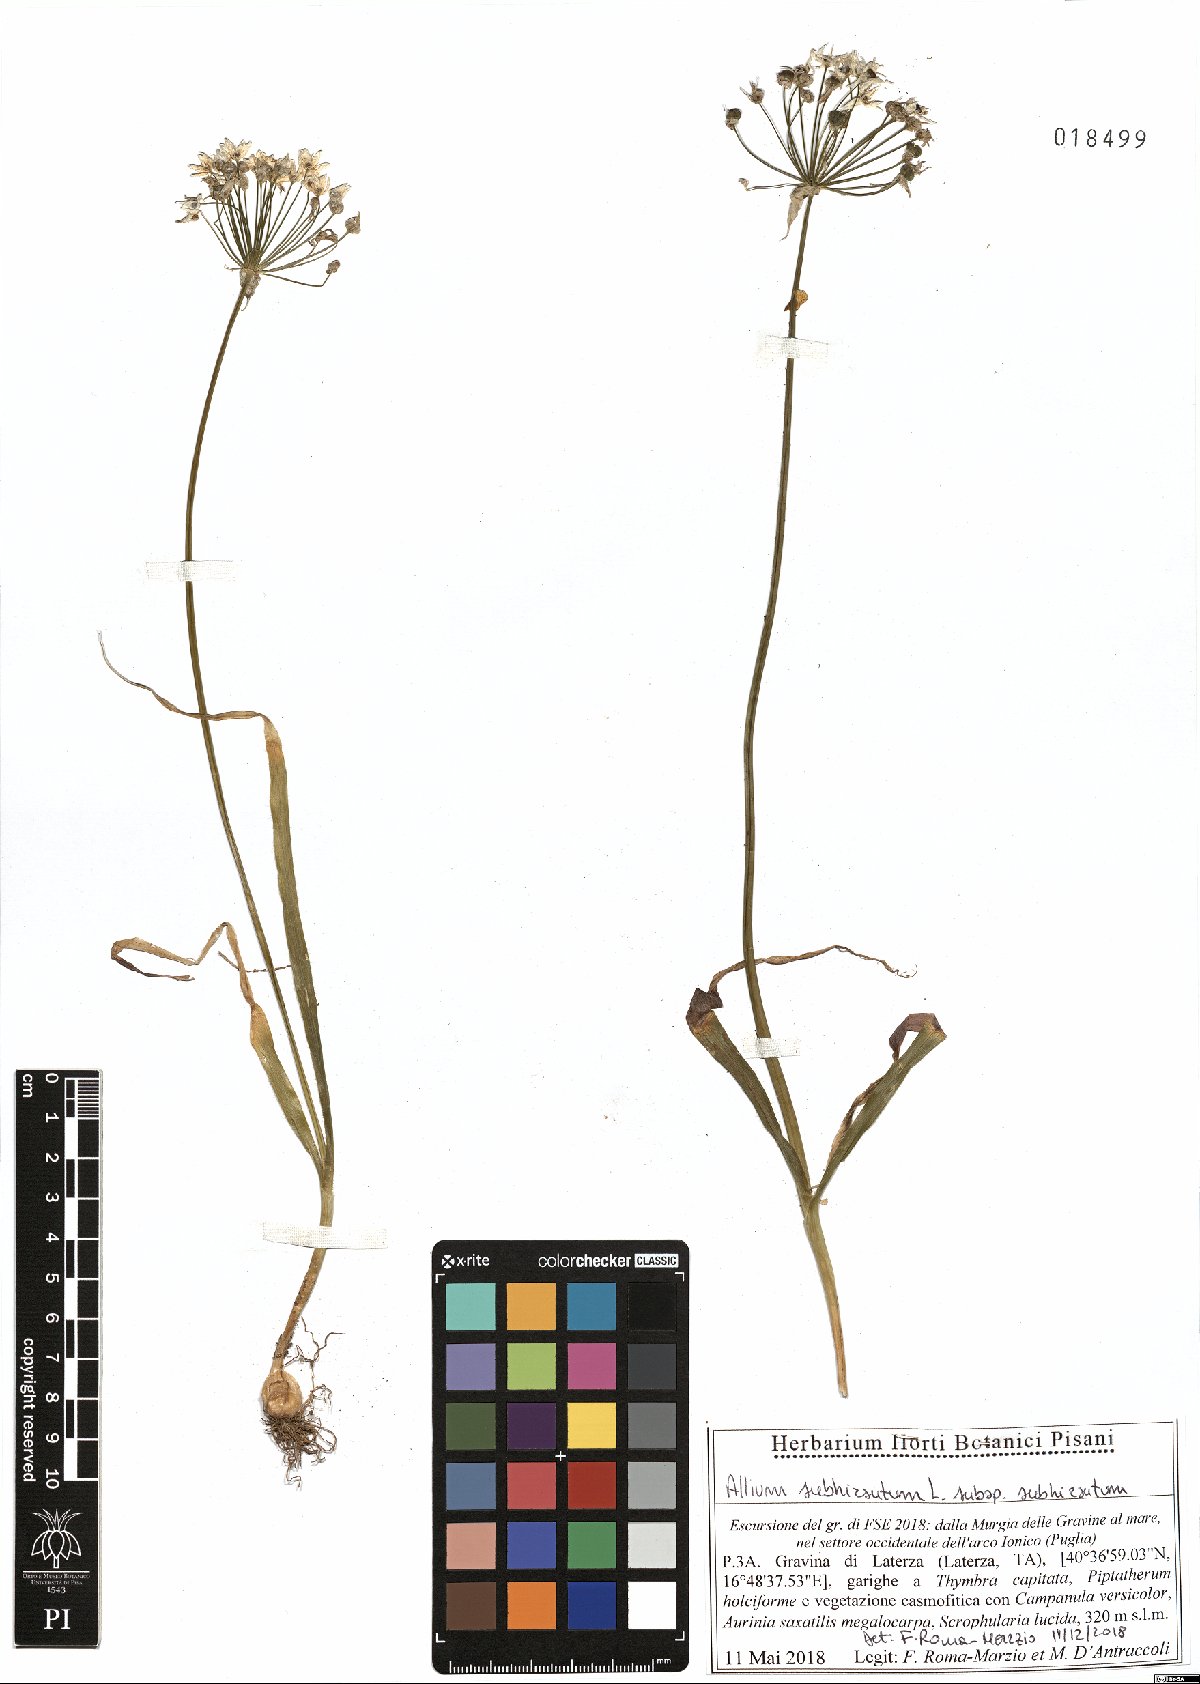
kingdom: Plantae
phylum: Tracheophyta
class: Liliopsida
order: Asparagales
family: Amaryllidaceae
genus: Allium
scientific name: Allium subhirsutum
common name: Hairy garlic
